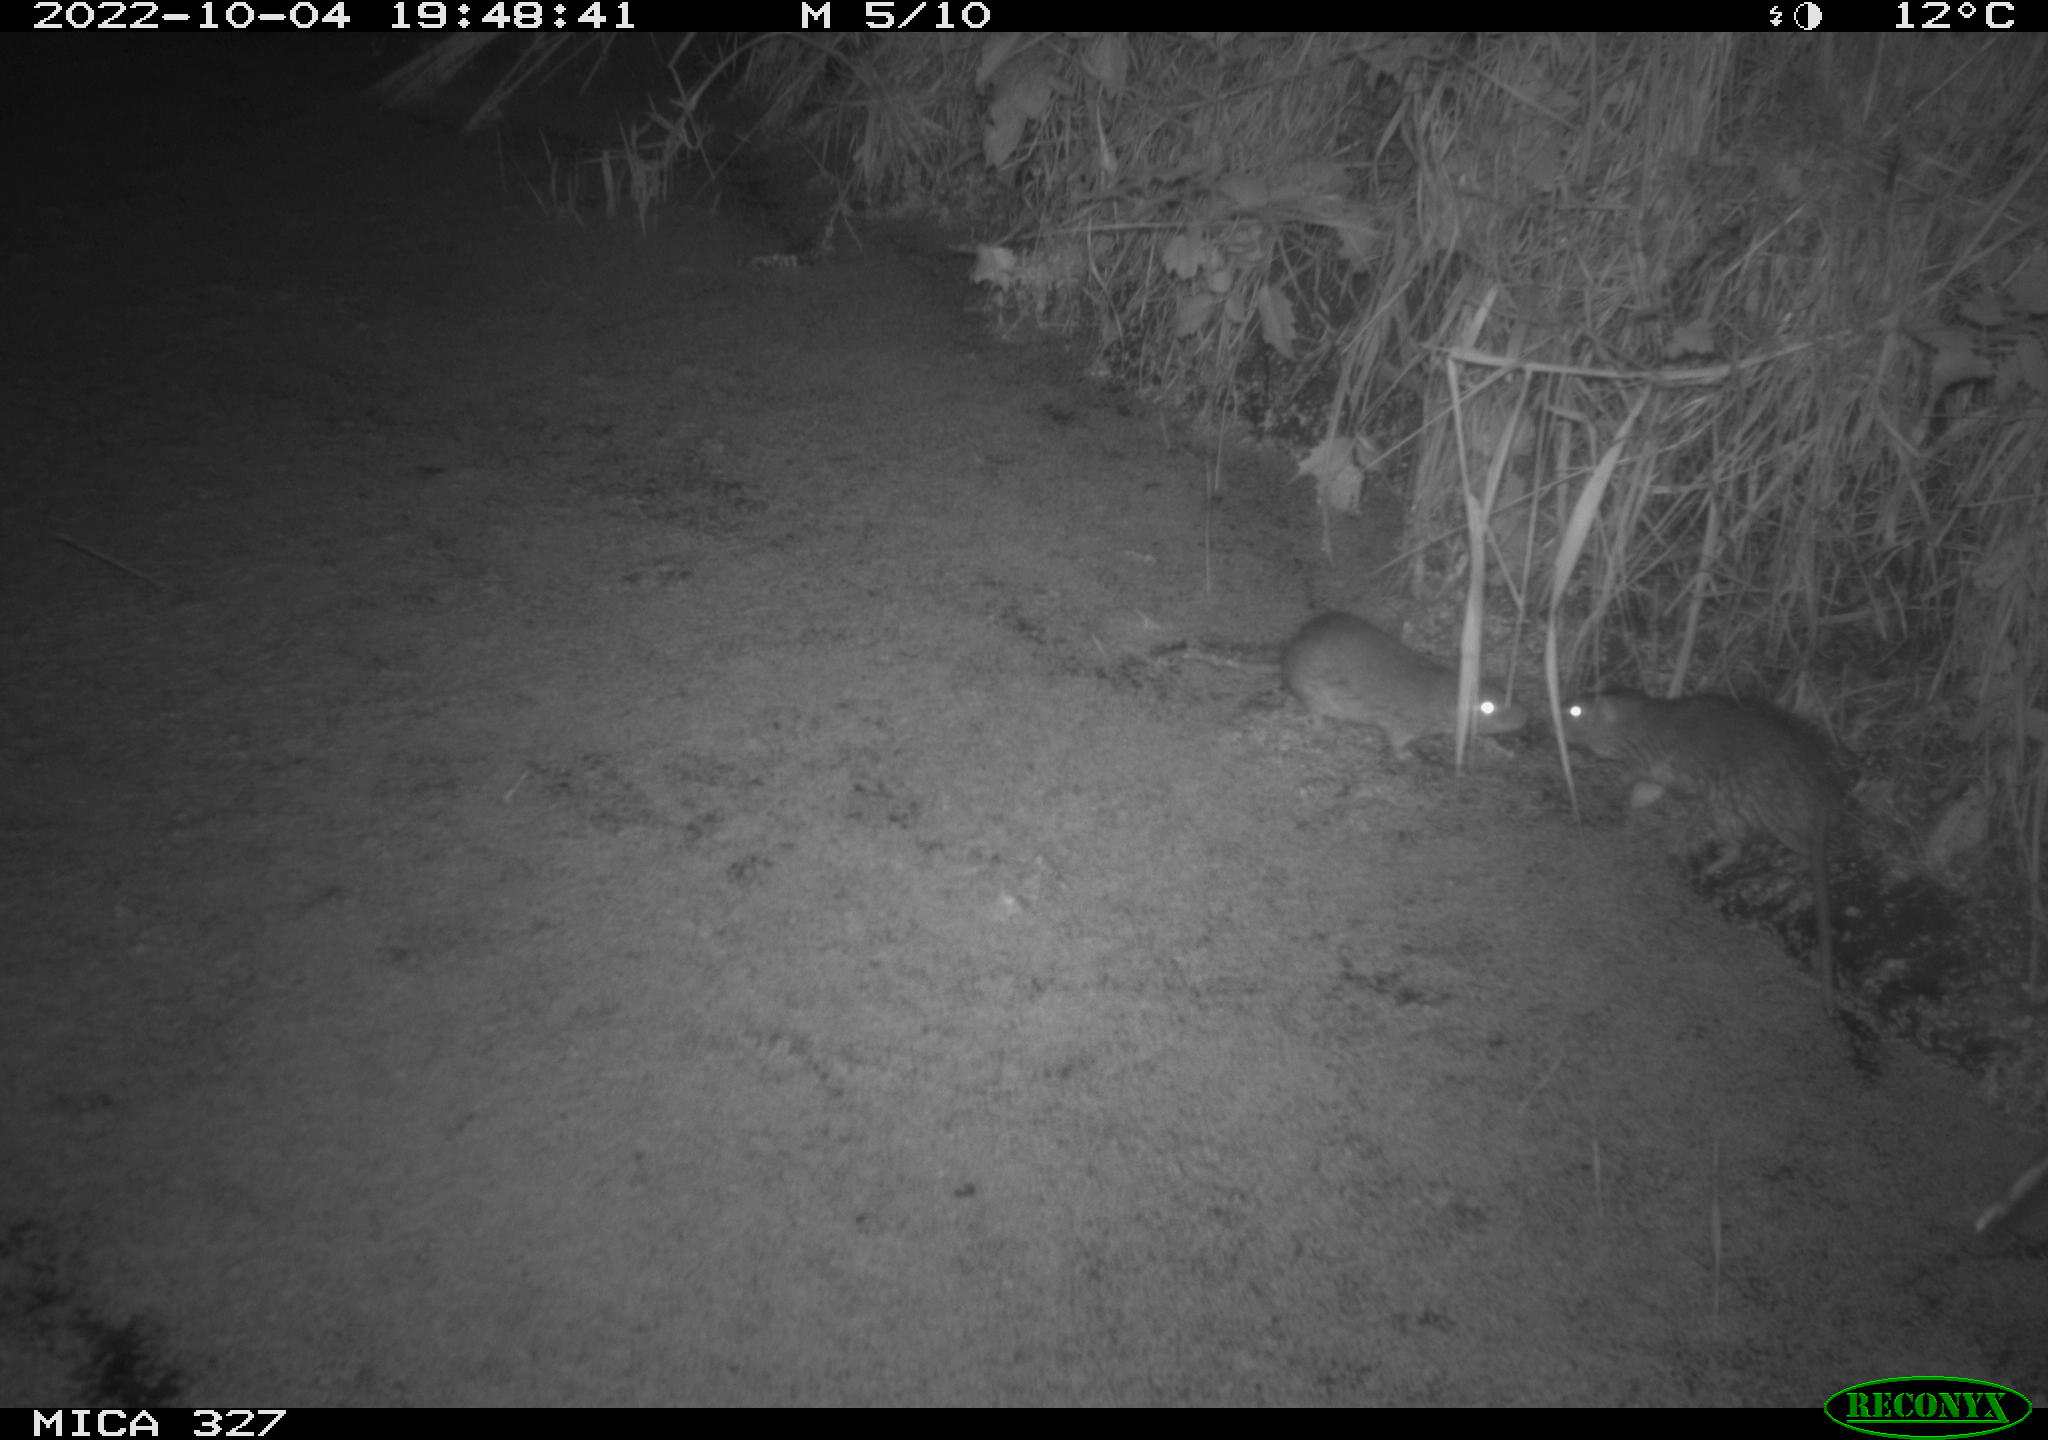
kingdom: Animalia
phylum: Chordata
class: Mammalia
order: Rodentia
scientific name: Rodentia
